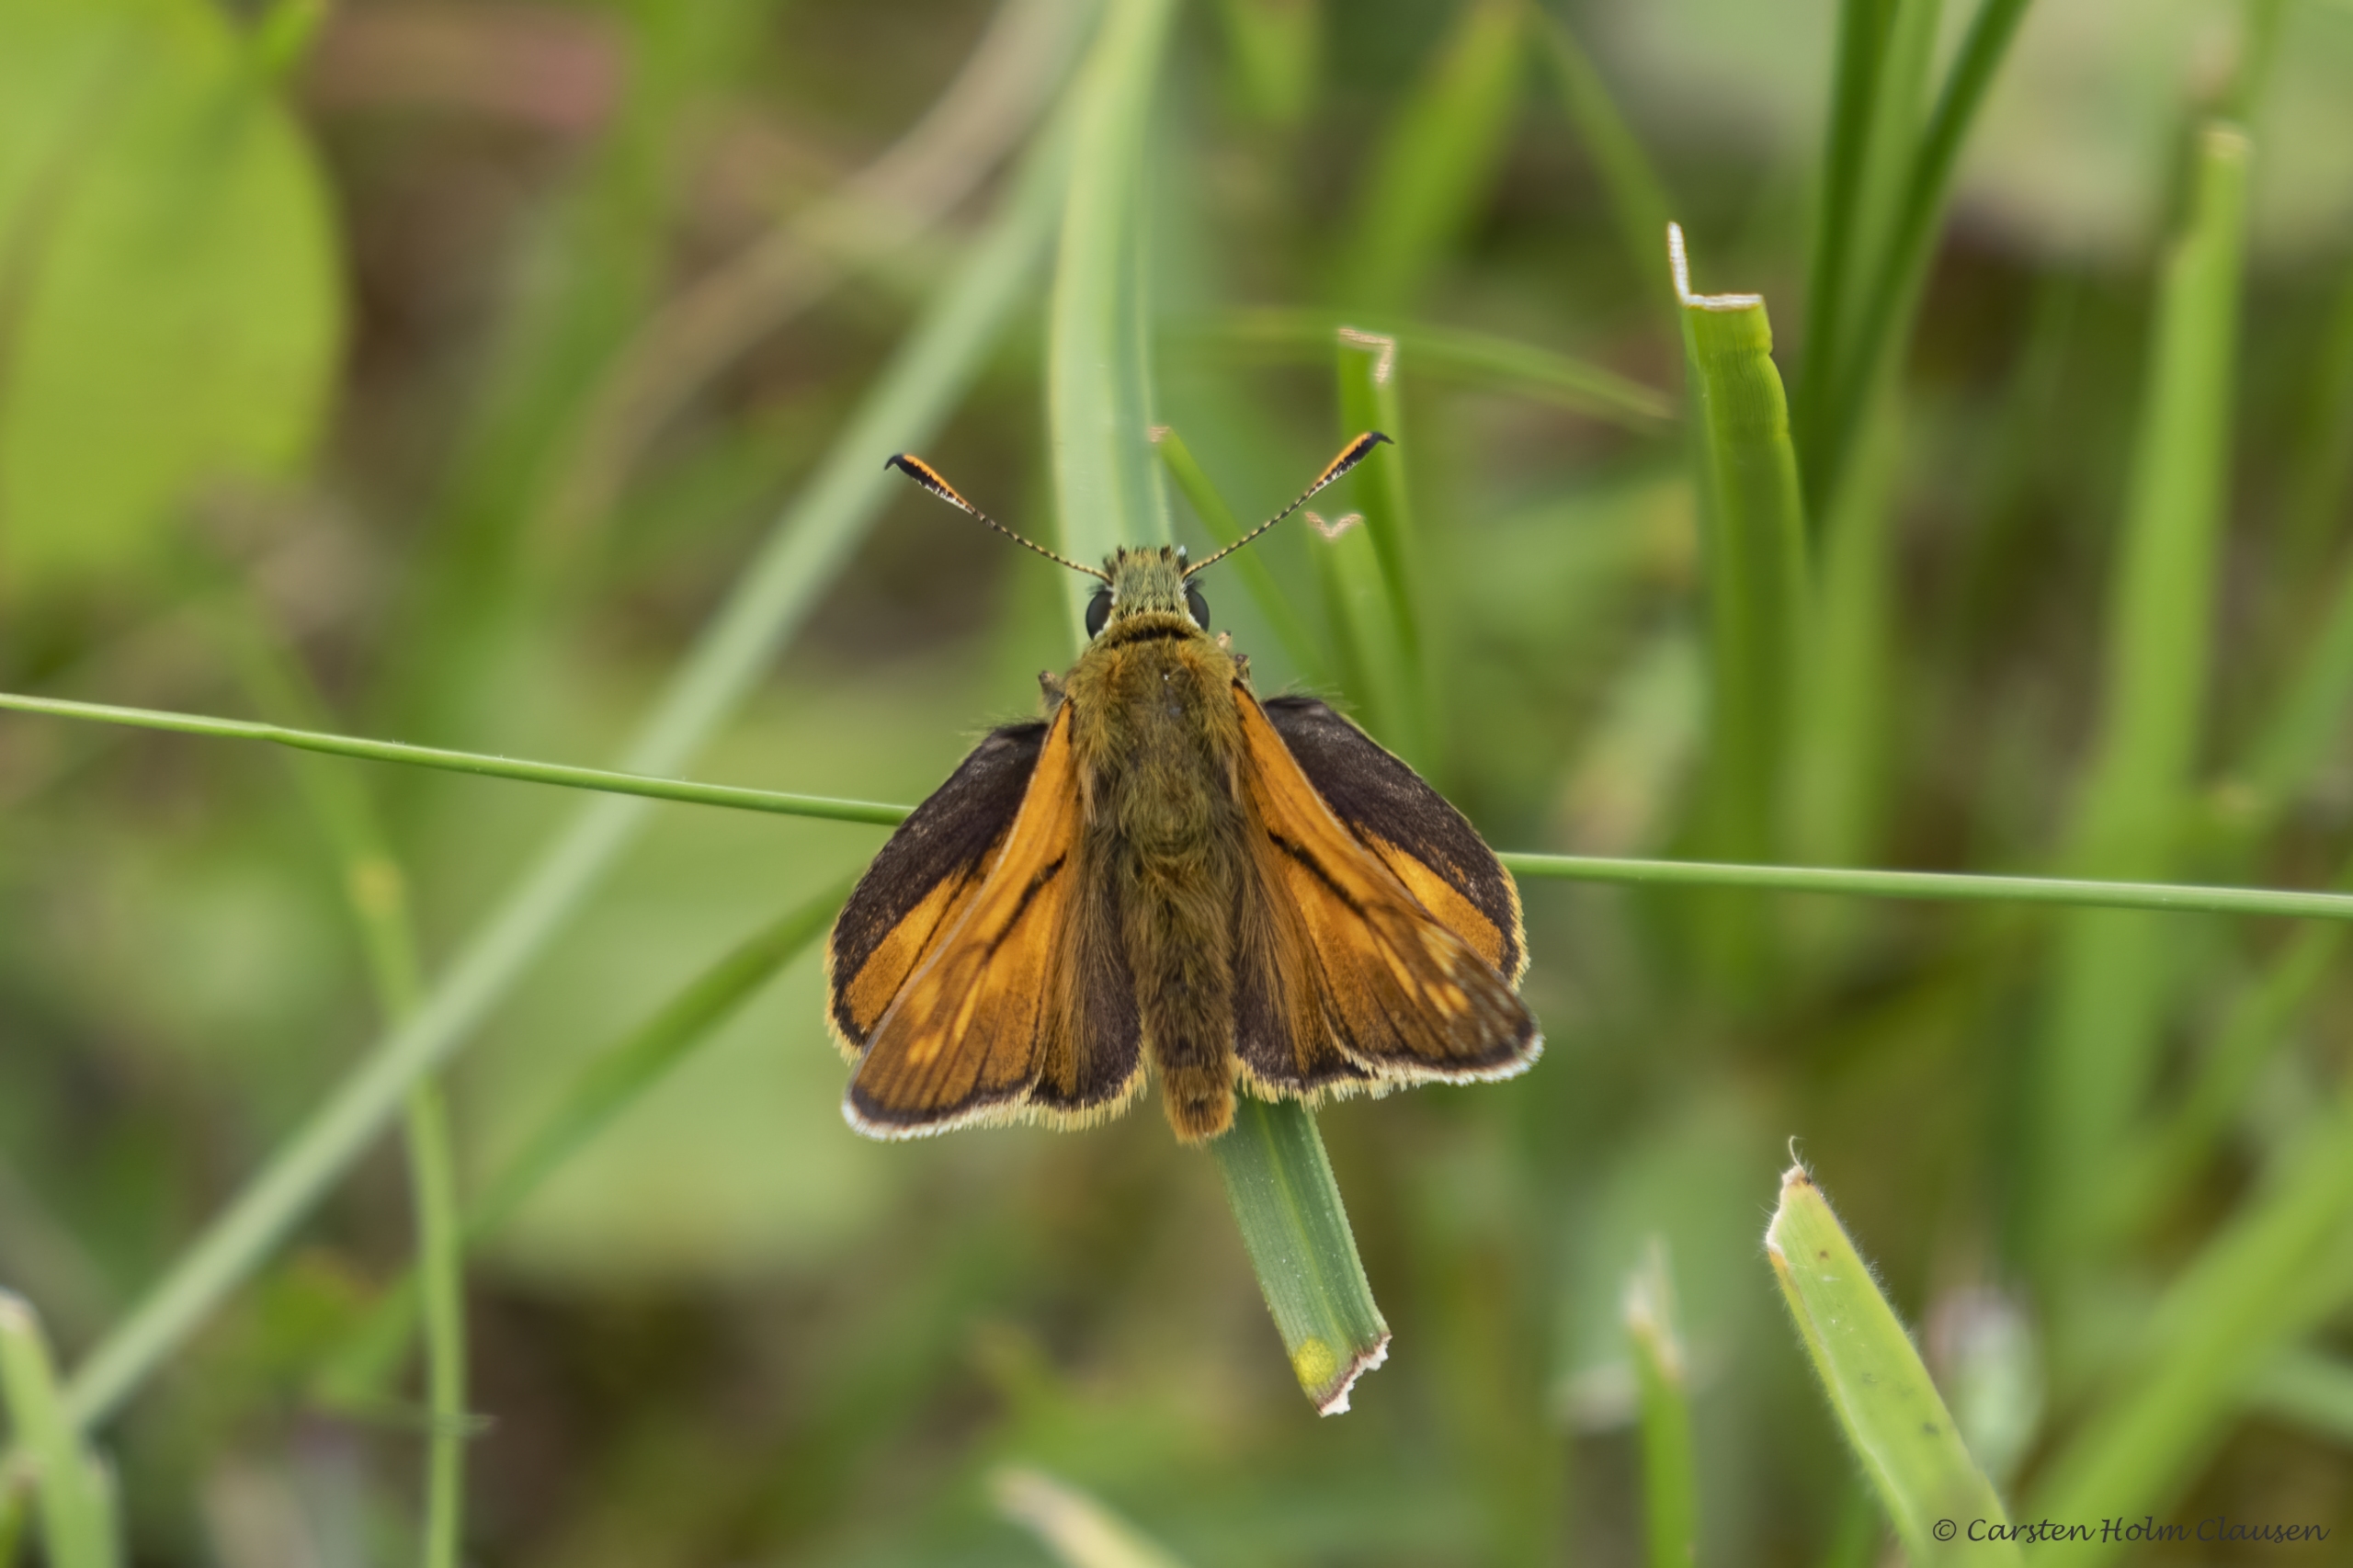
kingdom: Animalia
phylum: Arthropoda
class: Insecta
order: Lepidoptera
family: Hesperiidae
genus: Ochlodes
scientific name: Ochlodes venata
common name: Stor bredpande
